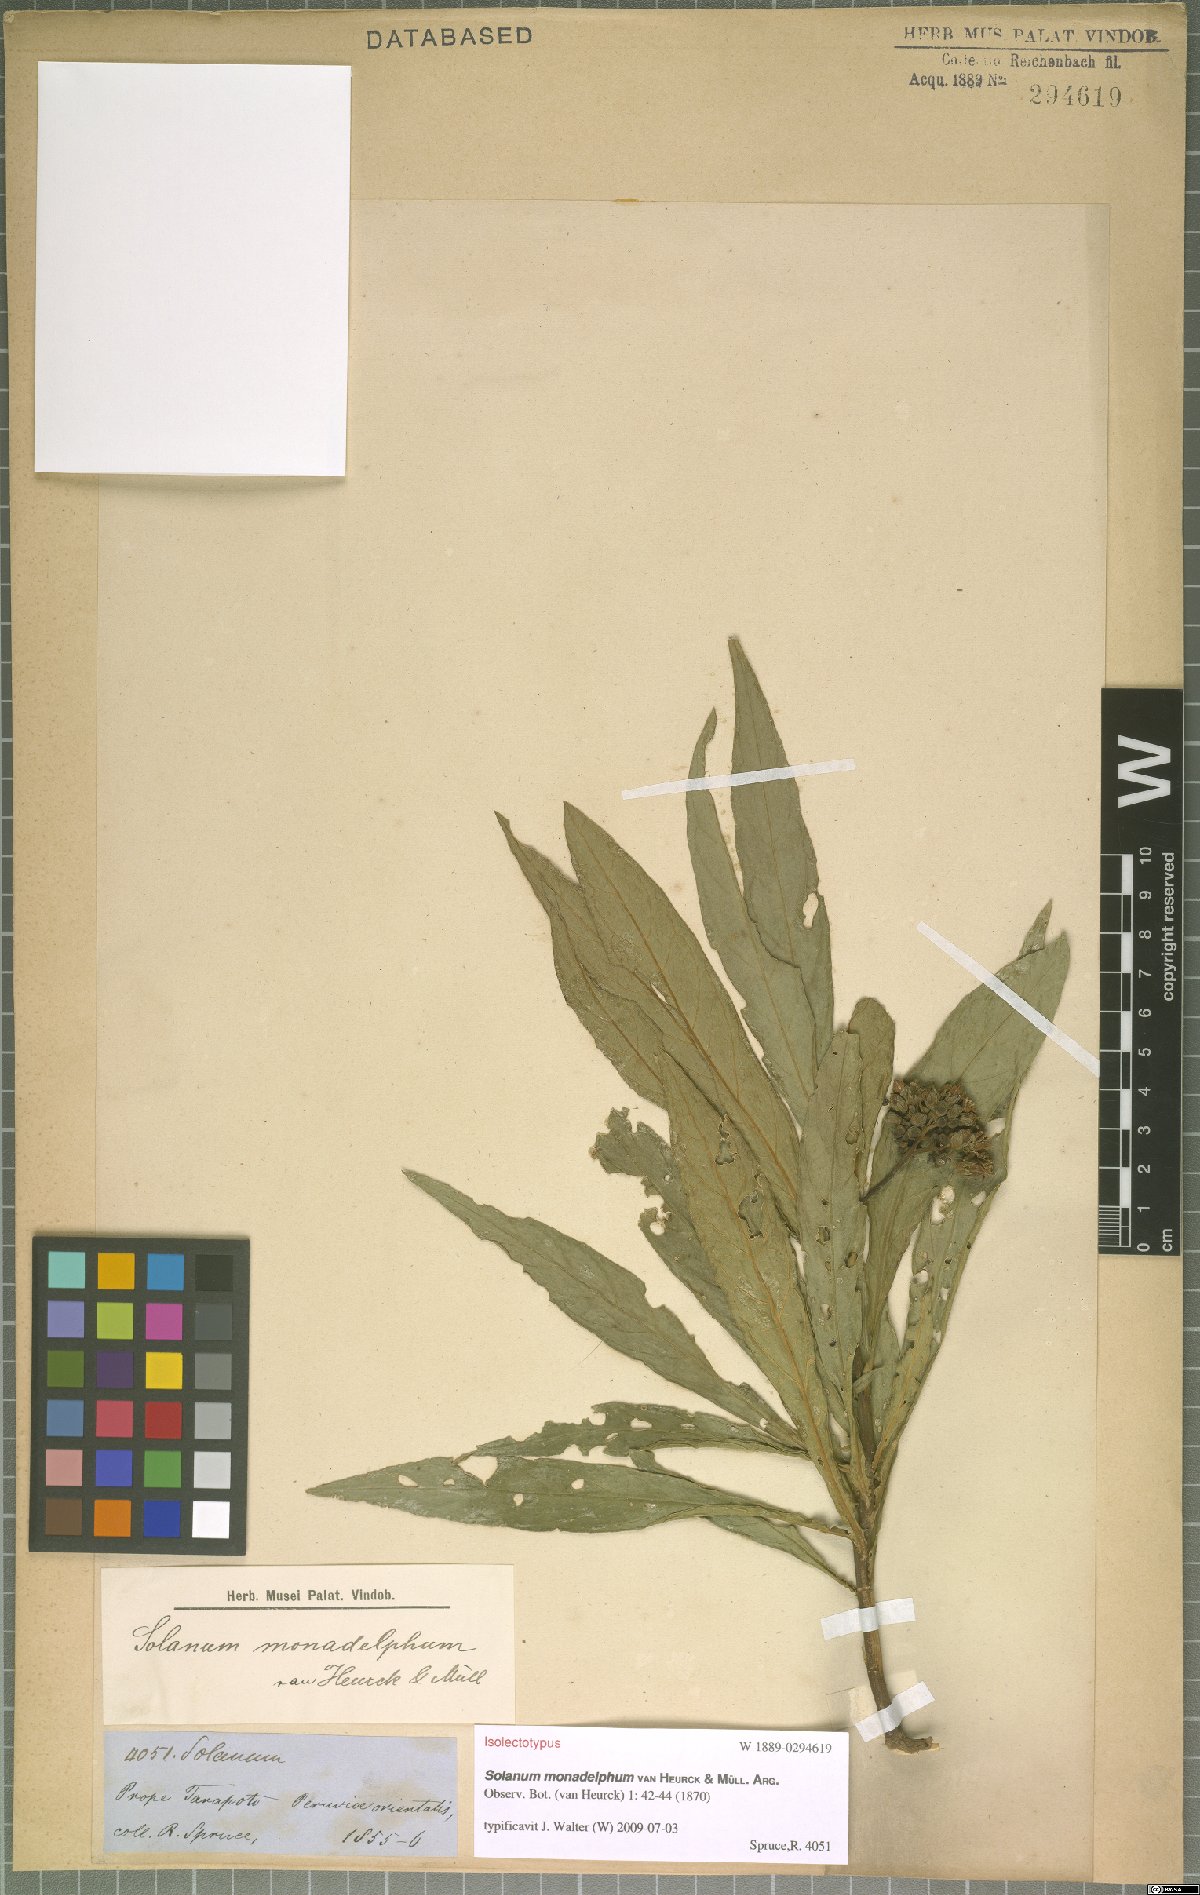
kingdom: Plantae
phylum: Tracheophyta
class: Magnoliopsida
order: Solanales
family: Solanaceae
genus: Solanum
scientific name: Solanum monadelphum
